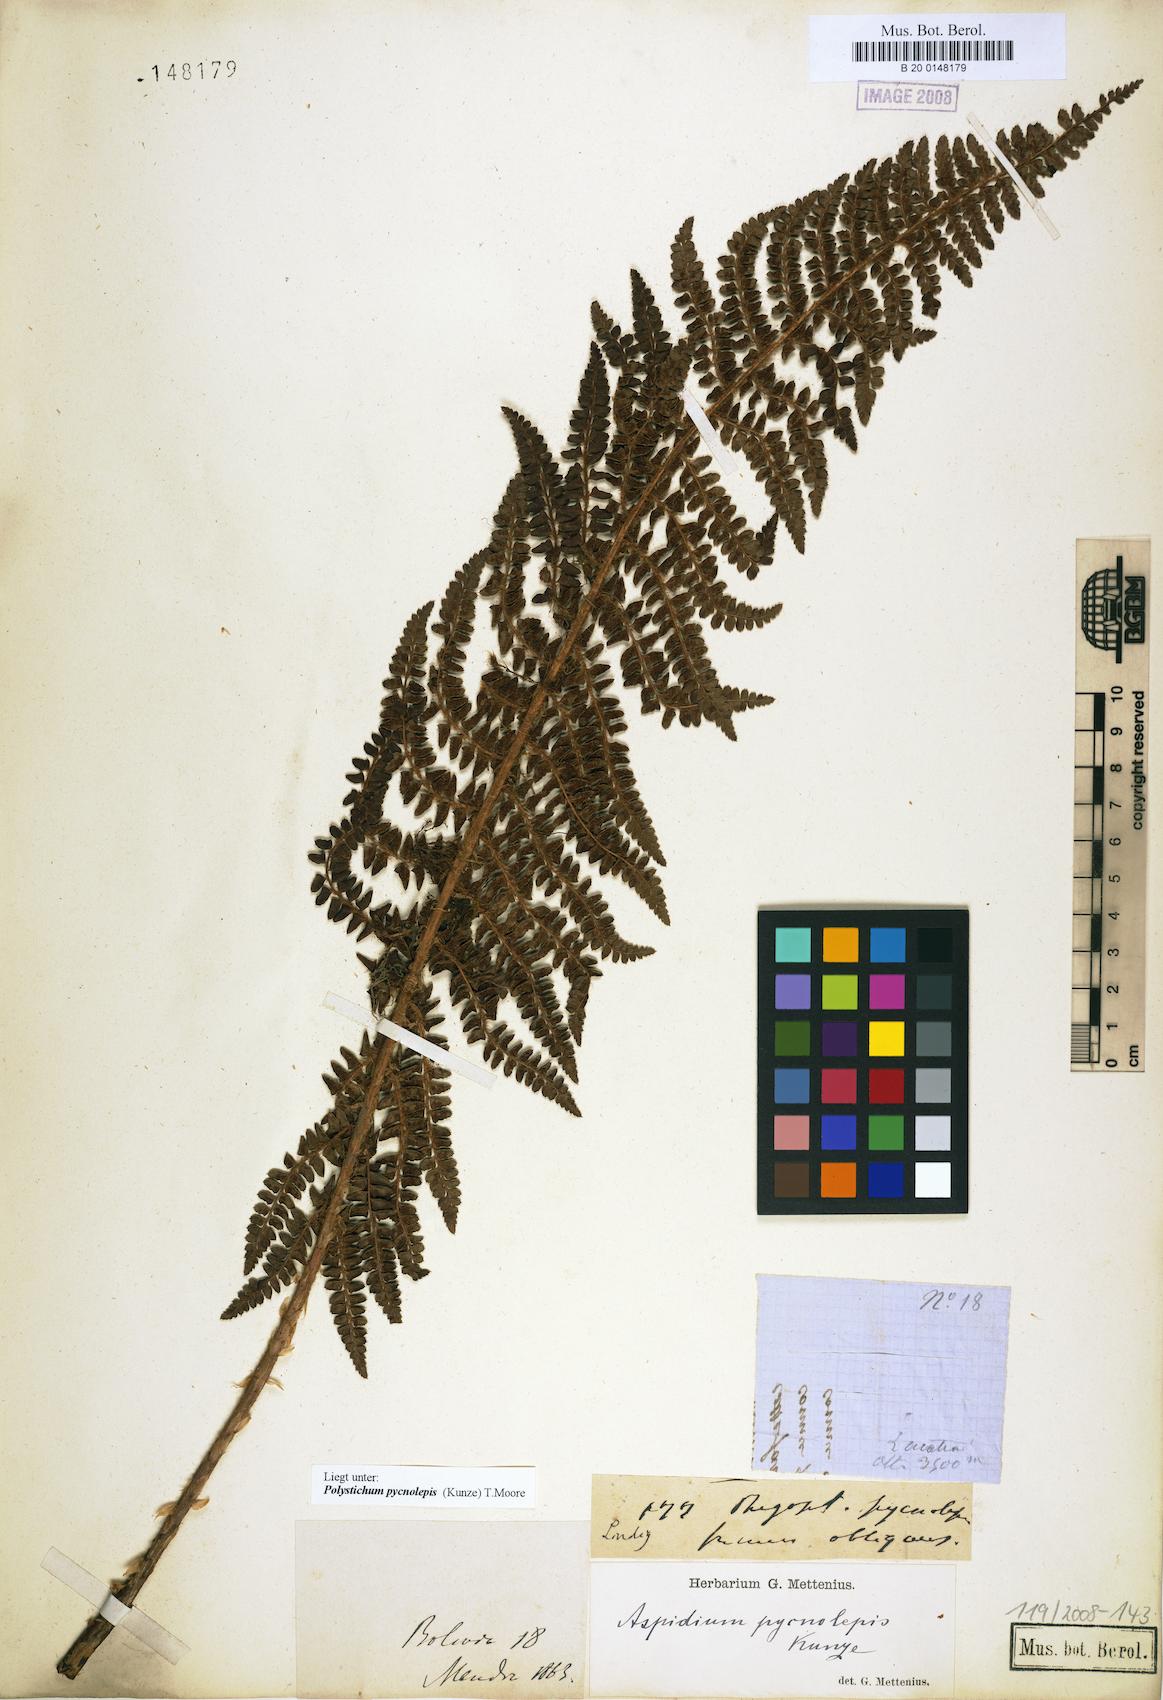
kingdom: Plantae
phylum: Tracheophyta
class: Polypodiopsida
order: Polypodiales
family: Dryopteridaceae
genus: Polystichum
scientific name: Polystichum pycnolepis
